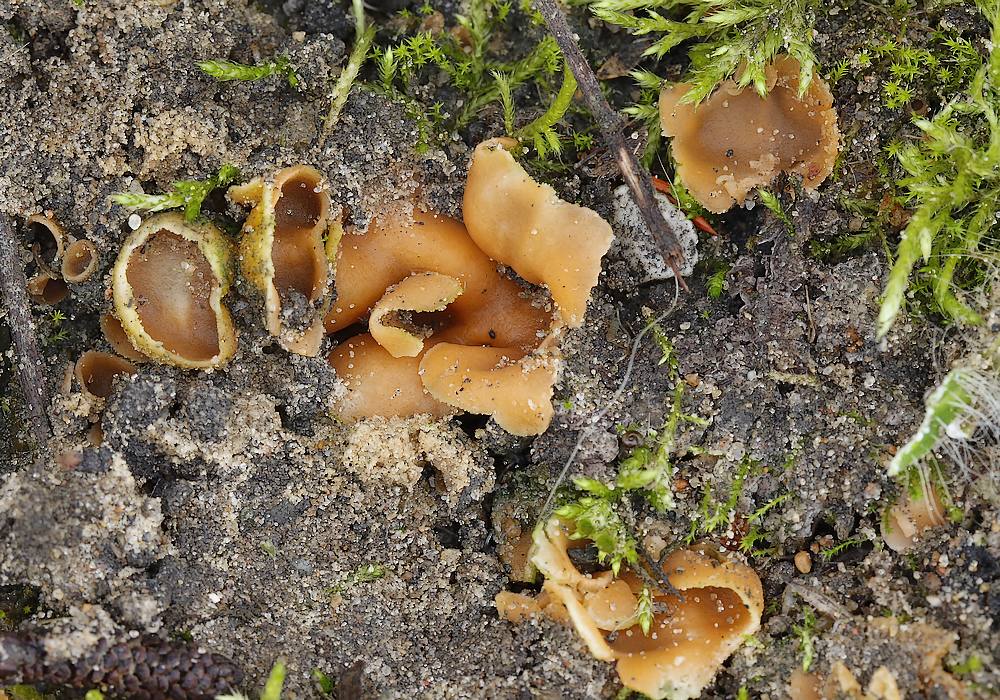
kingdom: Fungi
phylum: Ascomycota
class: Pezizomycetes
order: Pezizales
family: Pyronemataceae
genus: Geopora
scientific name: Geopora semi-immersa
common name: nedsænket børstebæger
